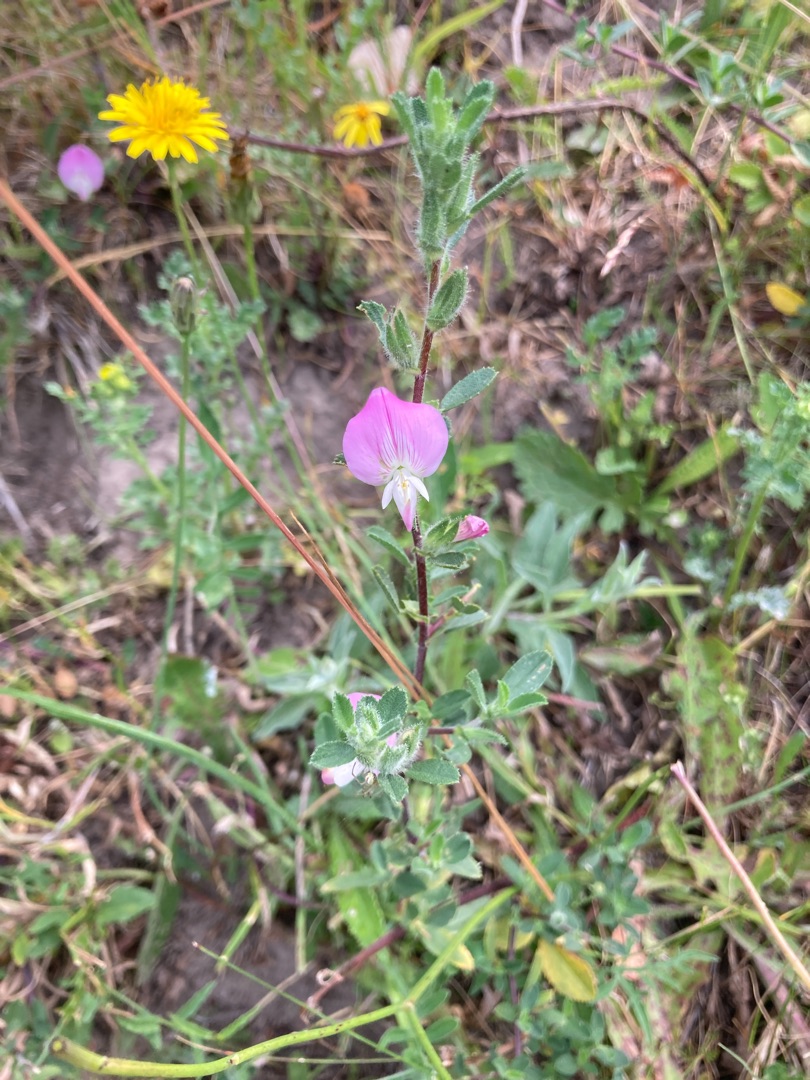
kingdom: Plantae
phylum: Tracheophyta
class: Magnoliopsida
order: Fabales
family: Fabaceae
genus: Ononis
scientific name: Ononis spinosa
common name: Mark-krageklo
